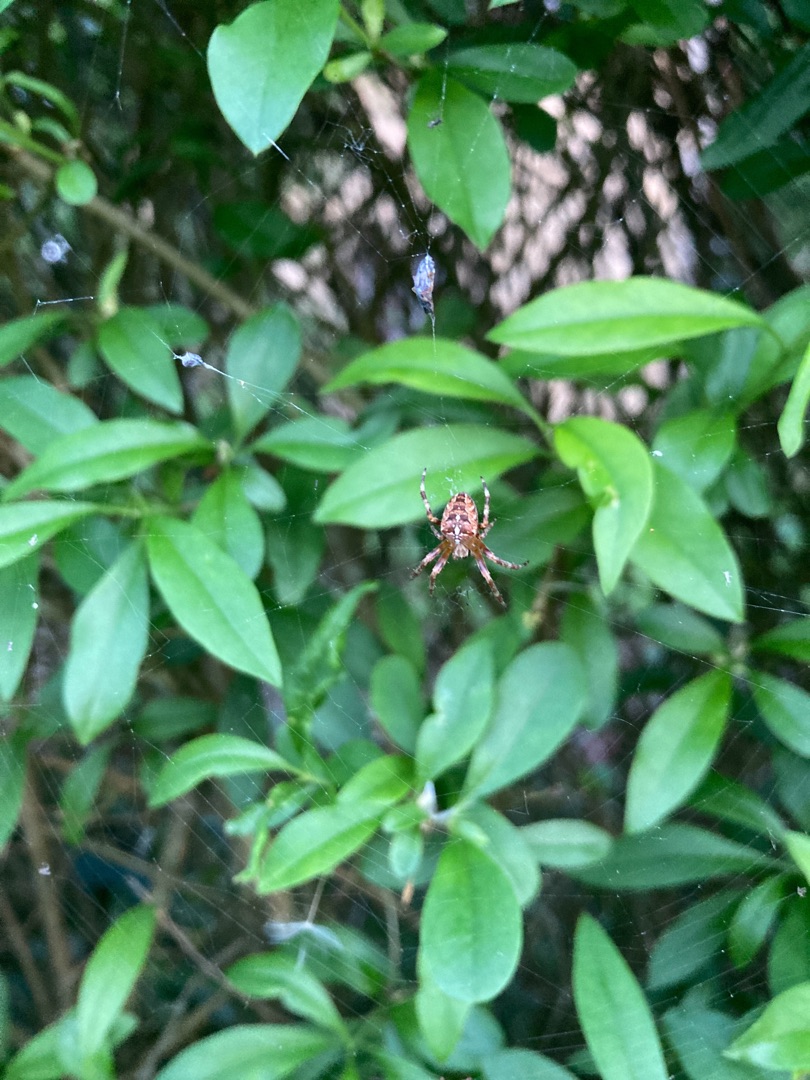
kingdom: Animalia
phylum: Arthropoda
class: Arachnida
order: Araneae
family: Araneidae
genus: Araneus
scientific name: Araneus diadematus
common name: Korsedderkop
